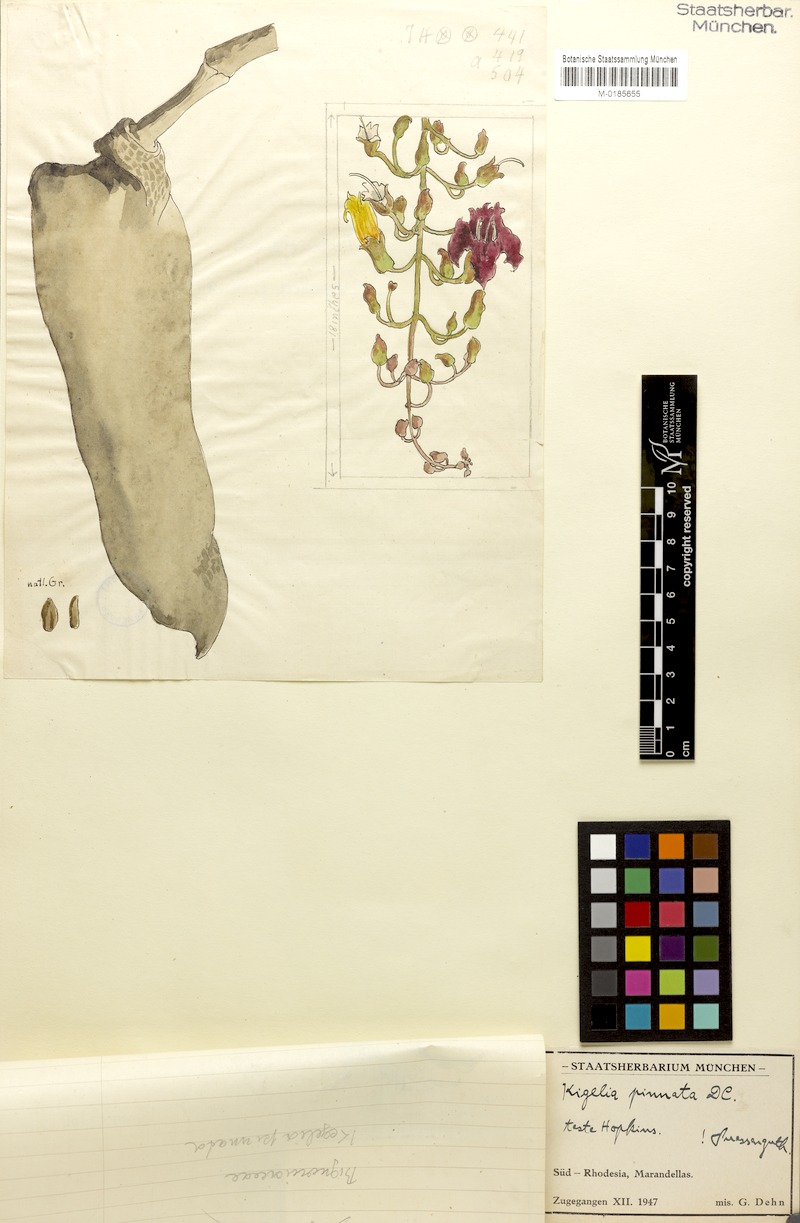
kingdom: Plantae
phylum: Tracheophyta
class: Magnoliopsida
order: Lamiales
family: Bignoniaceae
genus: Kigelia
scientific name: Kigelia africana
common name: Sausage tree
